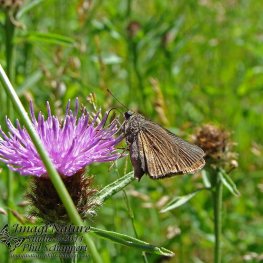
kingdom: Animalia
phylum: Arthropoda
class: Insecta
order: Lepidoptera
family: Hesperiidae
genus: Euphyes
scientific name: Euphyes vestris
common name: Dun Skipper
